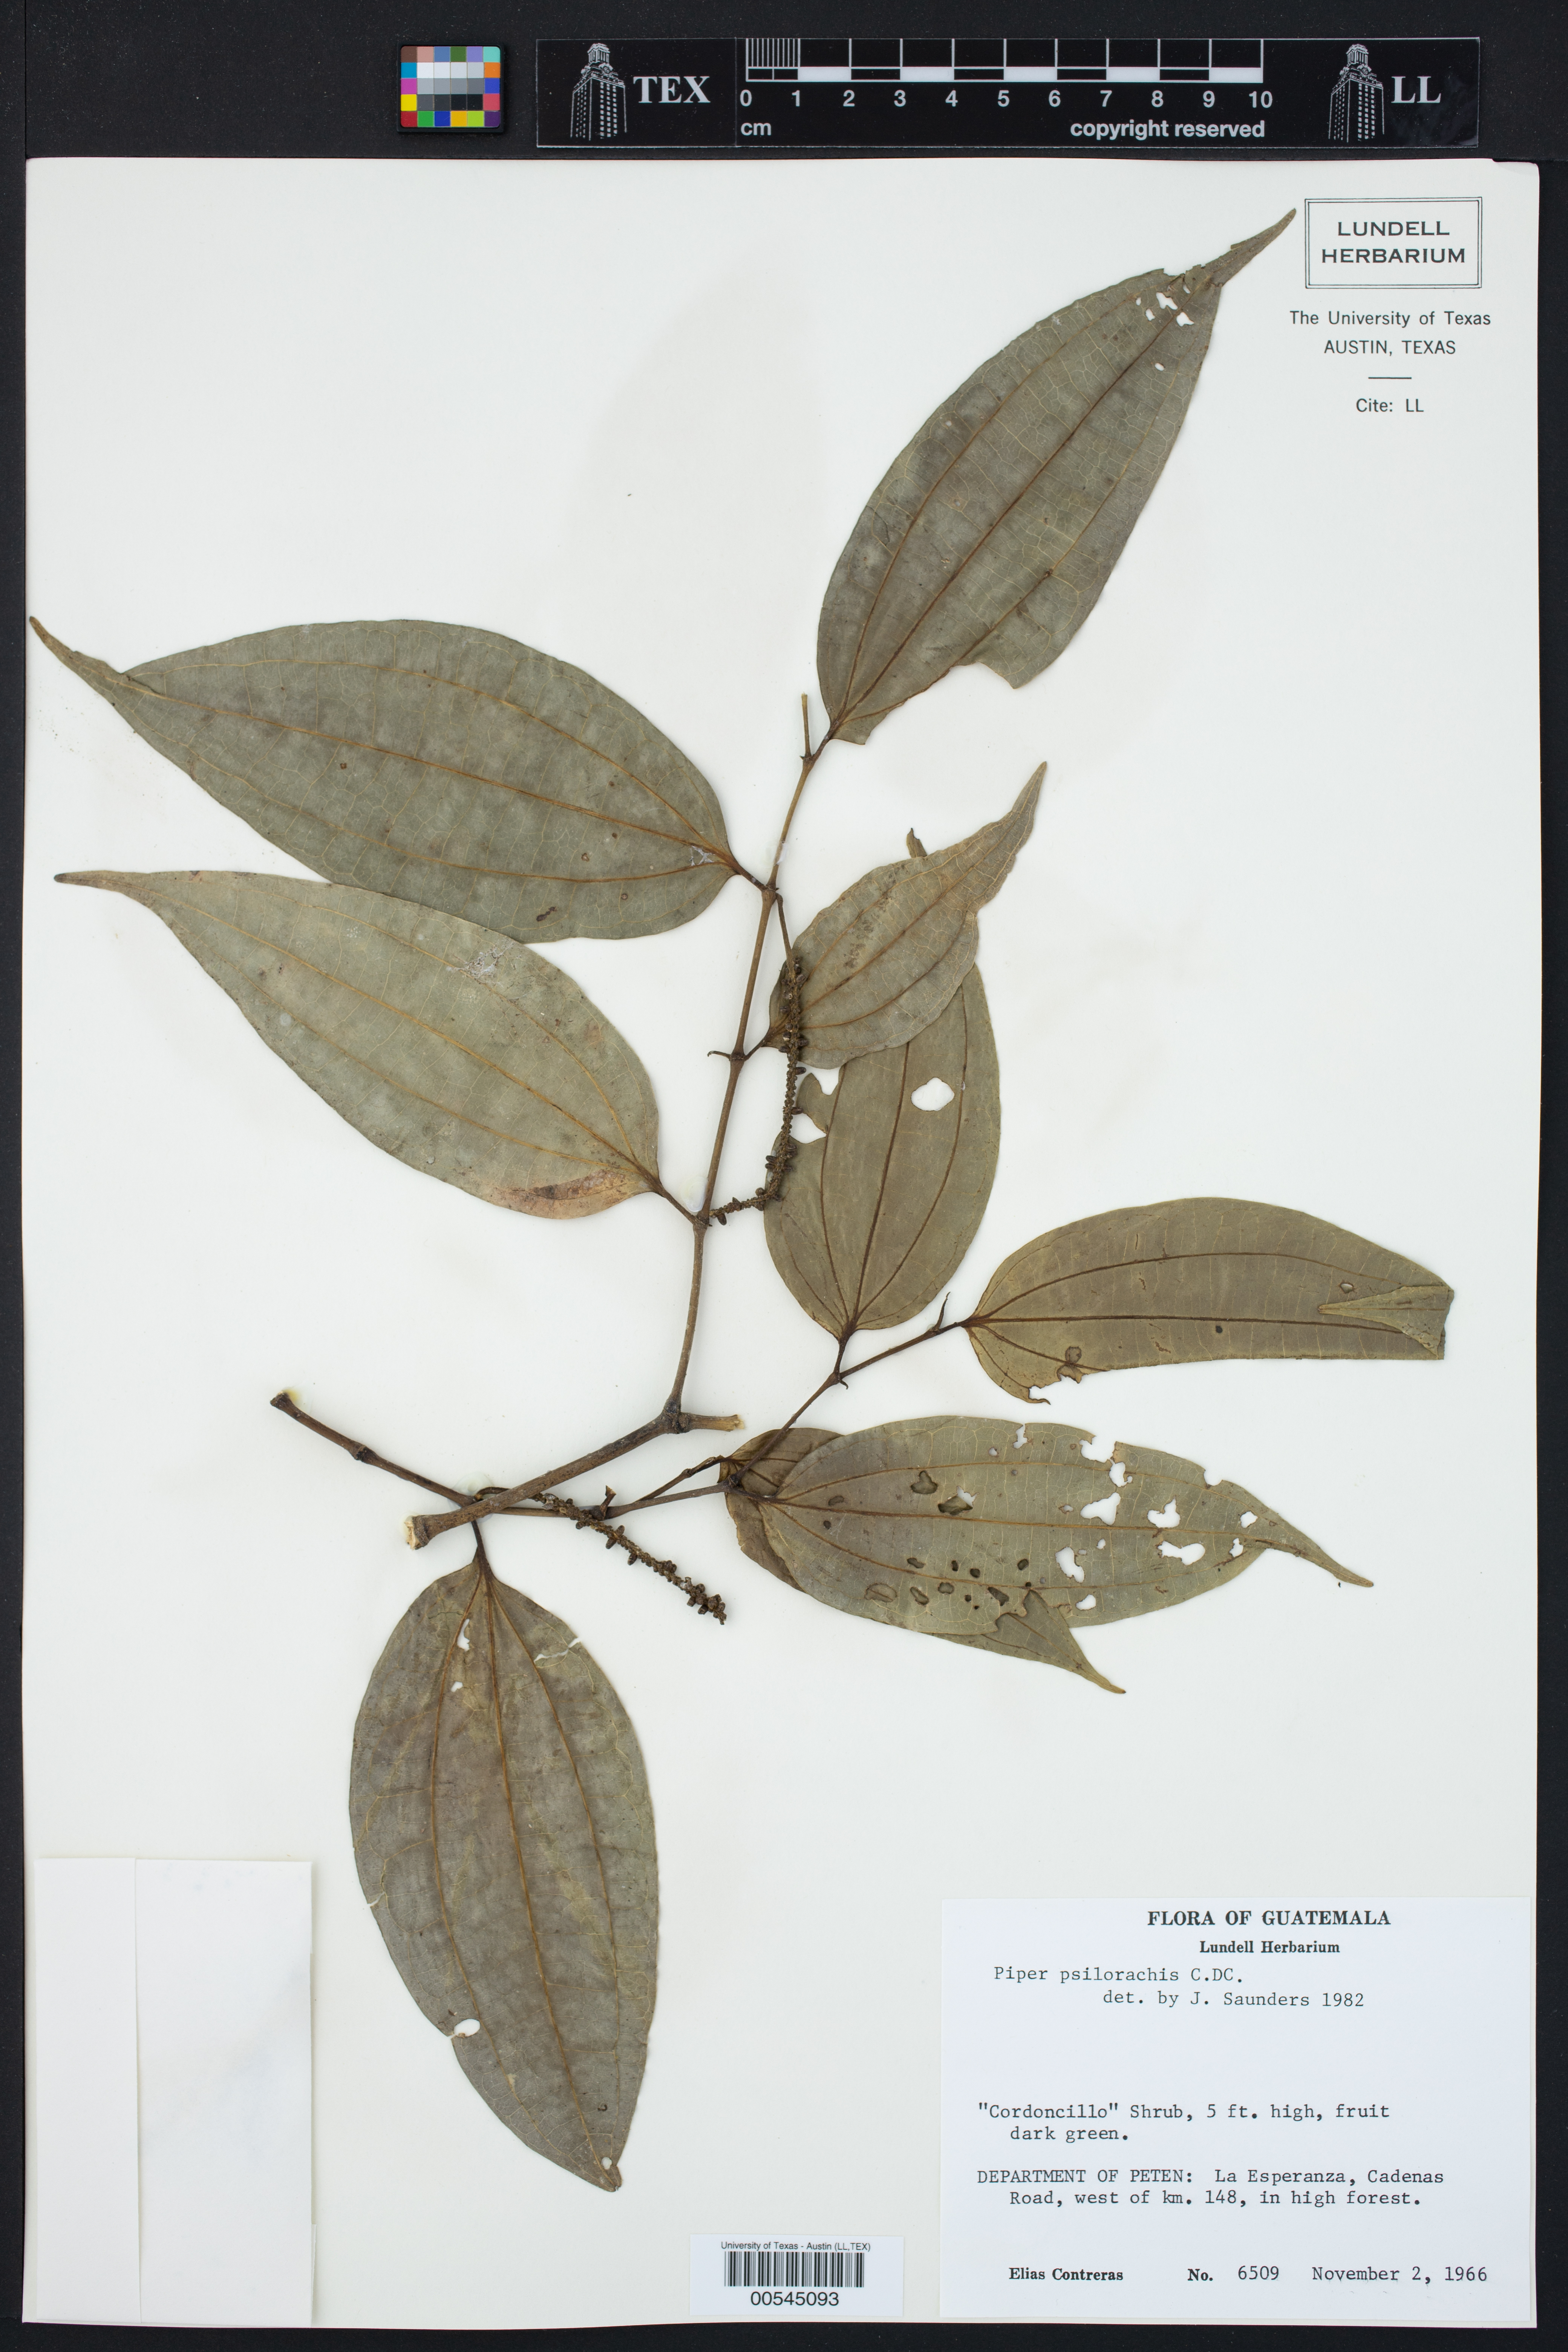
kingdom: Plantae
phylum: Tracheophyta
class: Magnoliopsida
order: Piperales
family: Piperaceae
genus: Piper
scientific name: Piper psilorhachis
